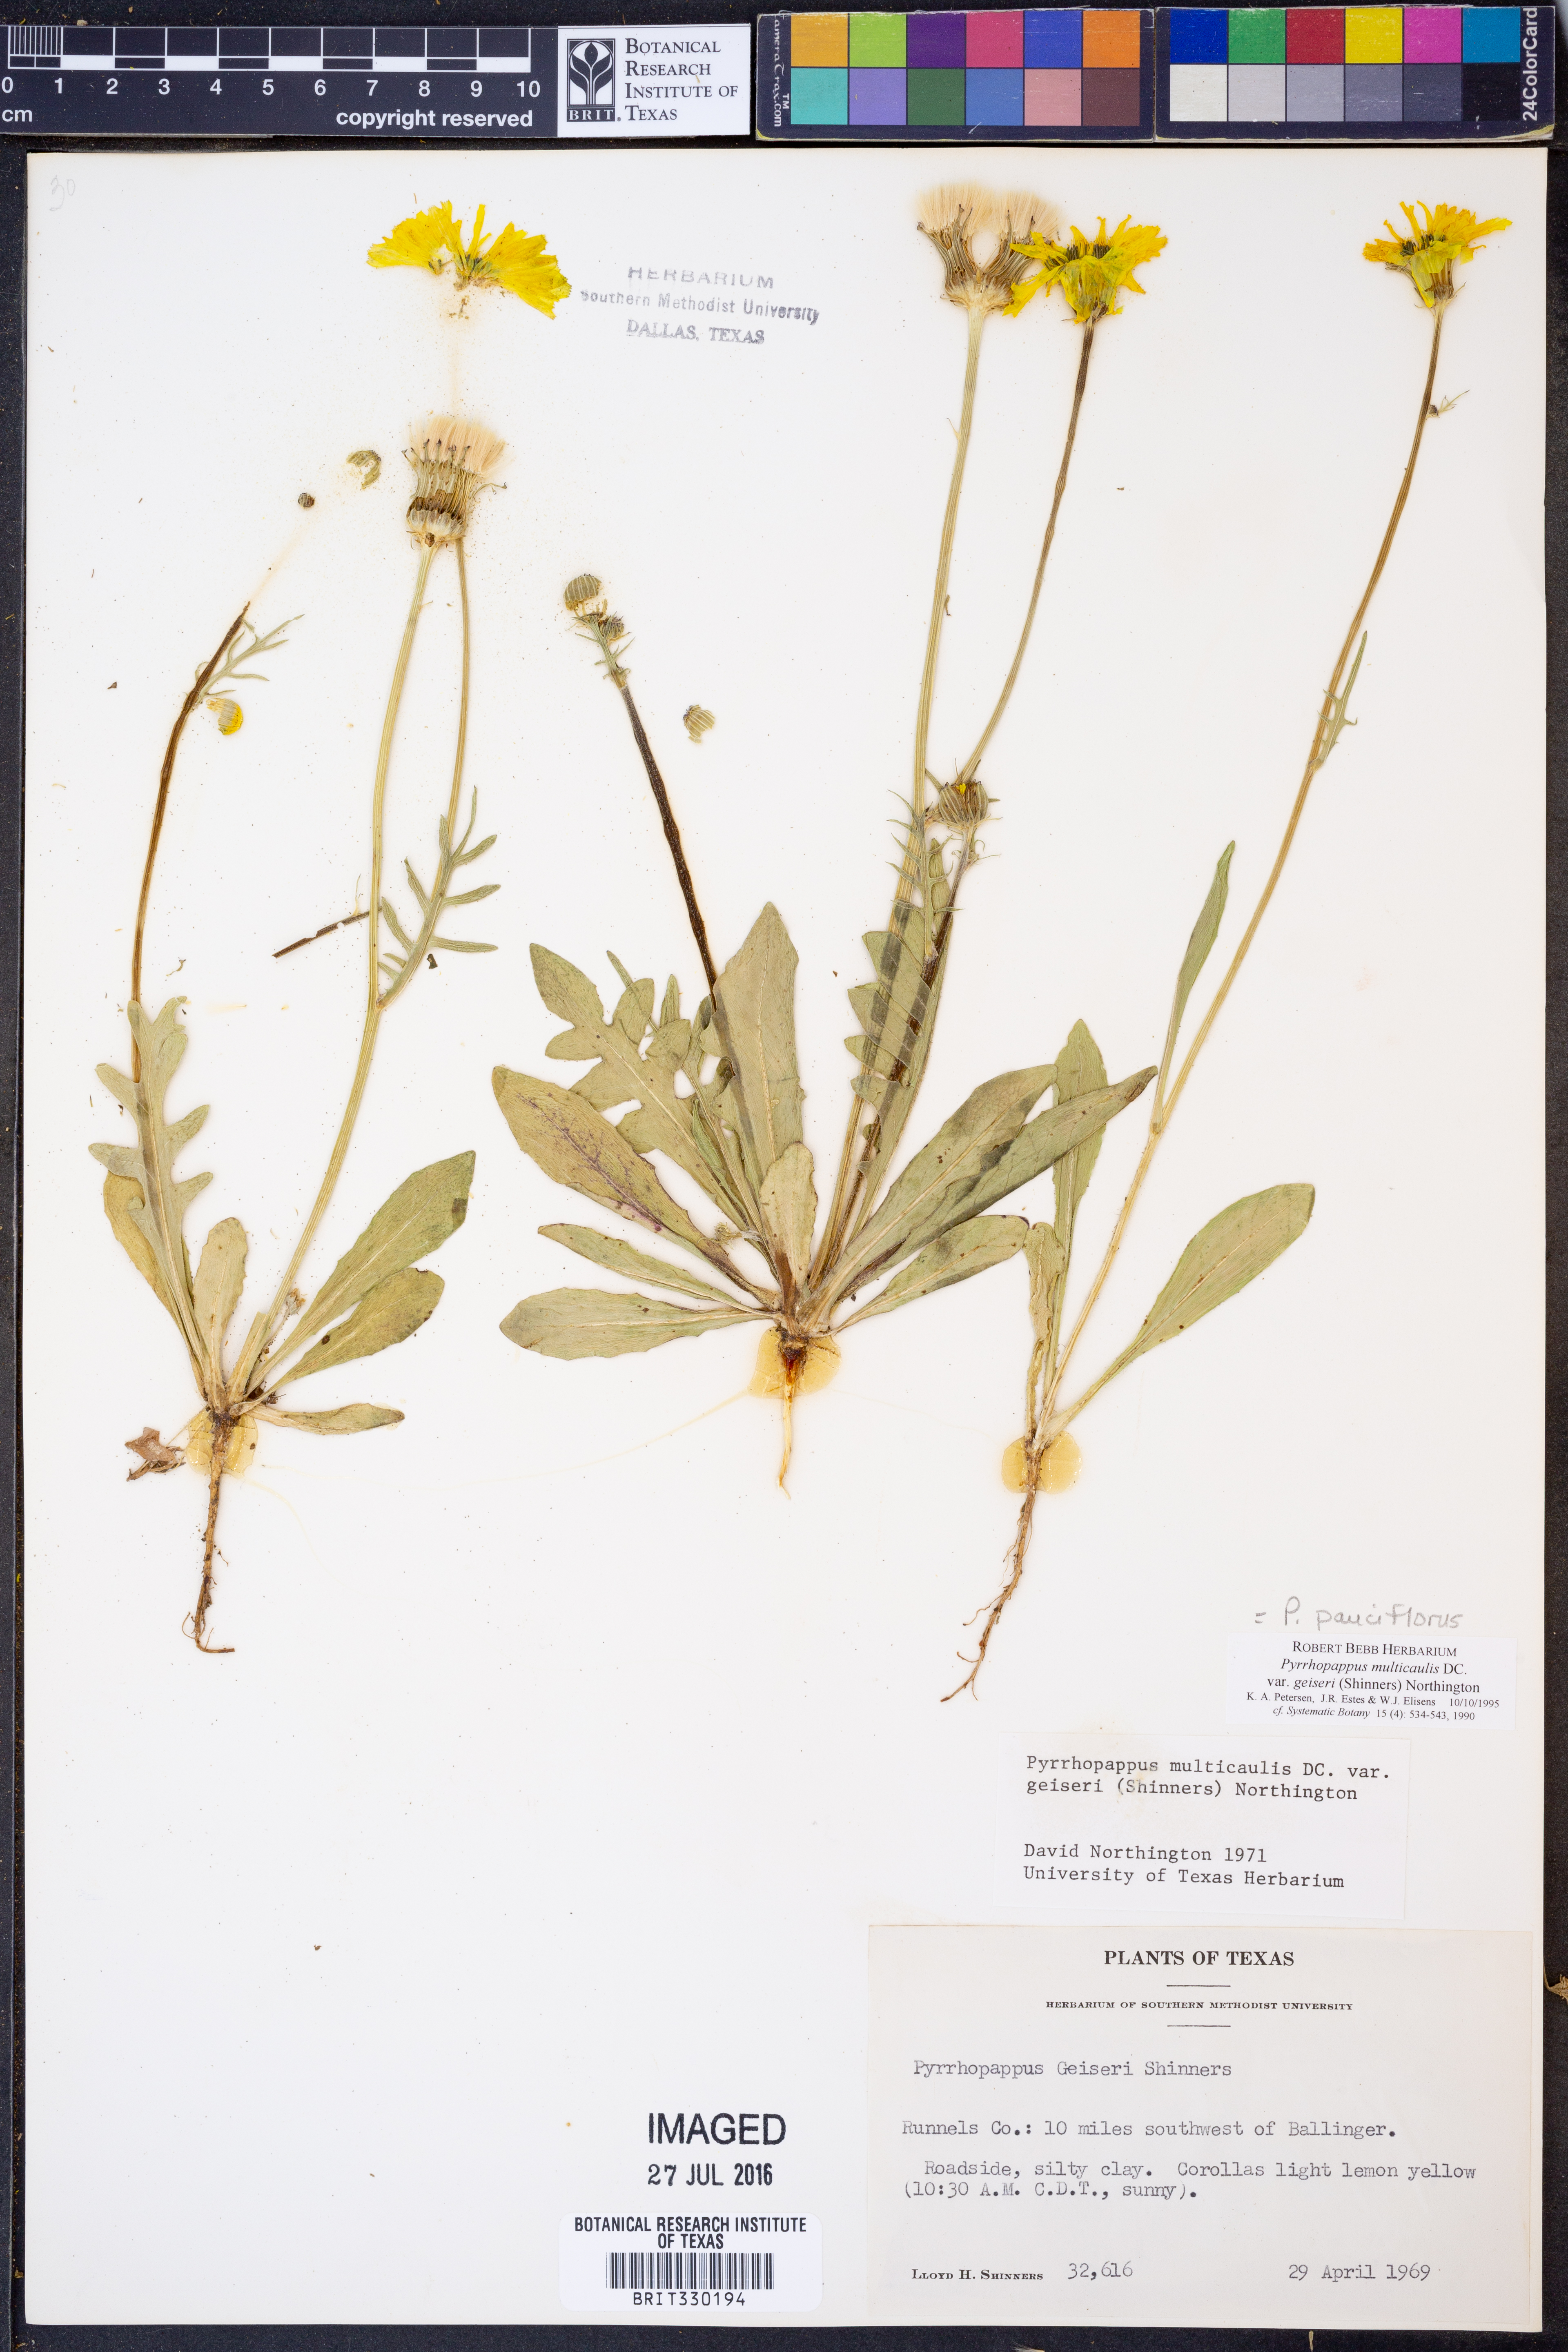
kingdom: Plantae
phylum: Tracheophyta
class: Magnoliopsida
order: Asterales
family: Asteraceae
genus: Pyrrhopappus
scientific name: Pyrrhopappus pauciflorus
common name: Texas false dandelion
